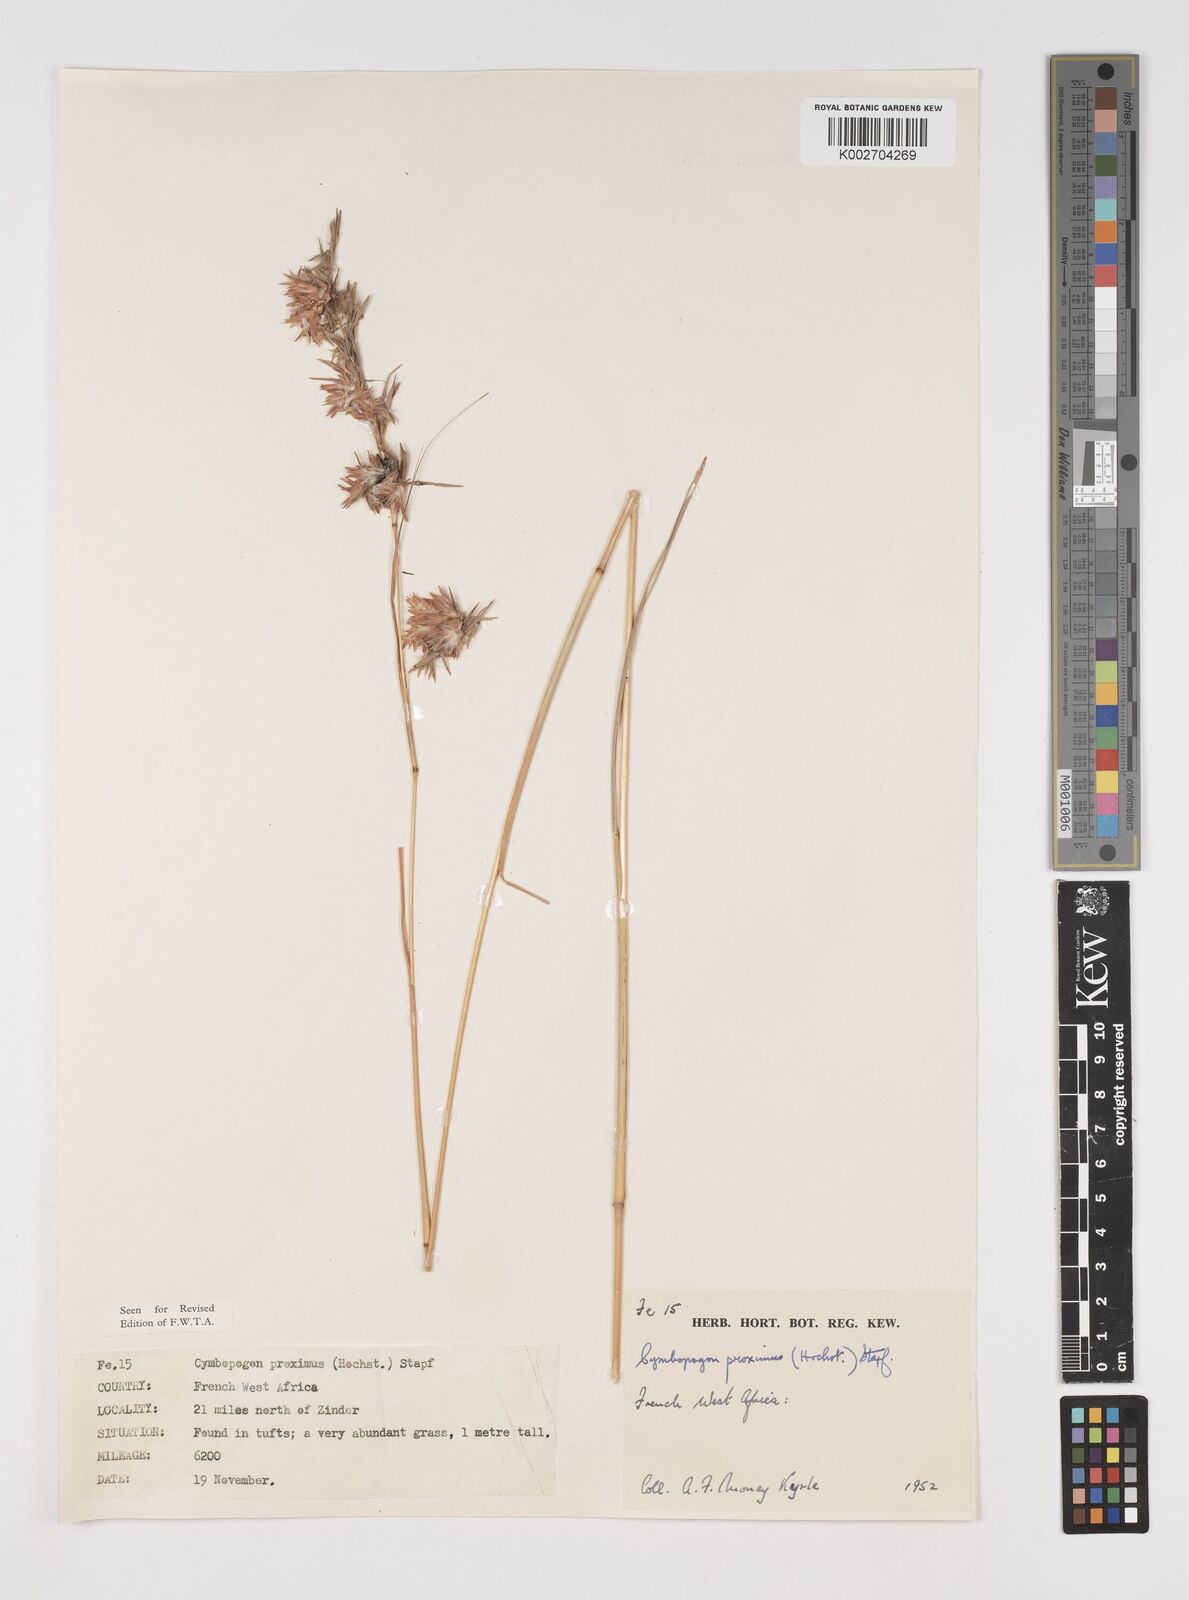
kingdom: Plantae
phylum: Tracheophyta
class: Liliopsida
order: Poales
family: Poaceae
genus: Cymbopogon
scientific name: Cymbopogon schoenanthus
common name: Geranium grass
